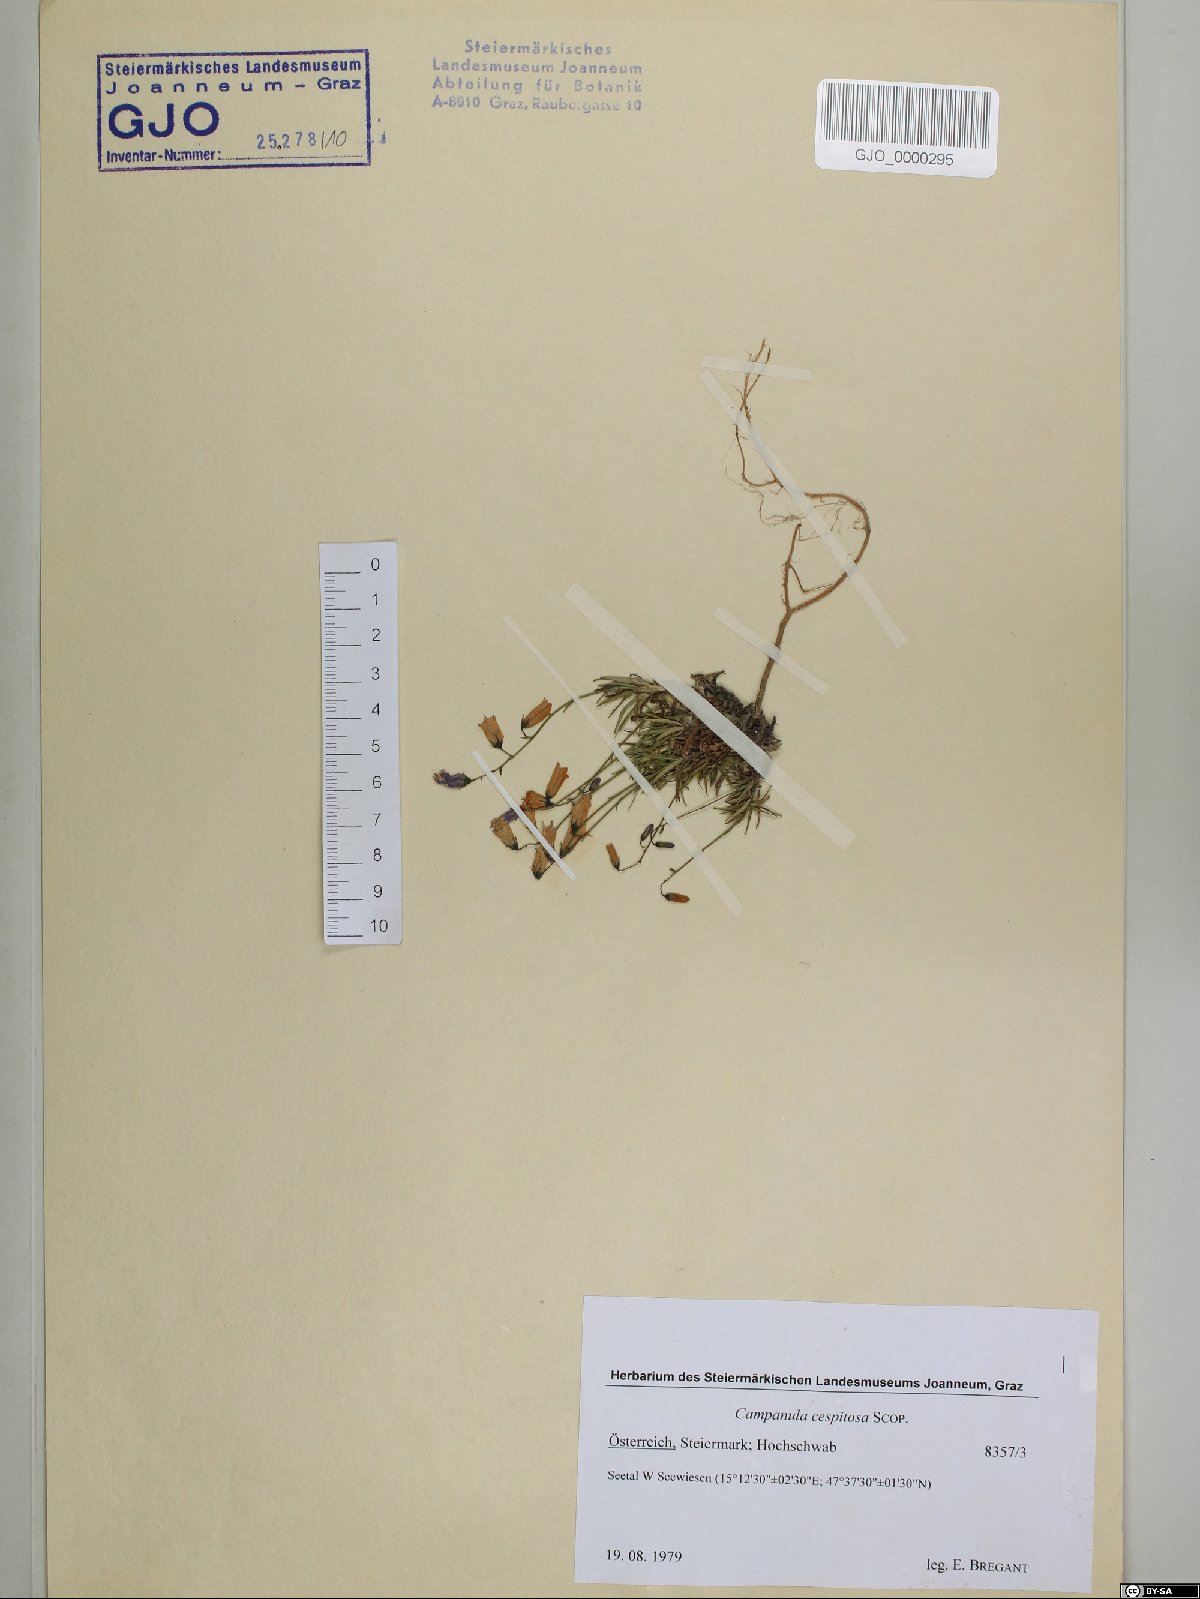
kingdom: Plantae
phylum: Tracheophyta
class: Magnoliopsida
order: Asterales
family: Campanulaceae
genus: Campanula
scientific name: Campanula cespitosa
